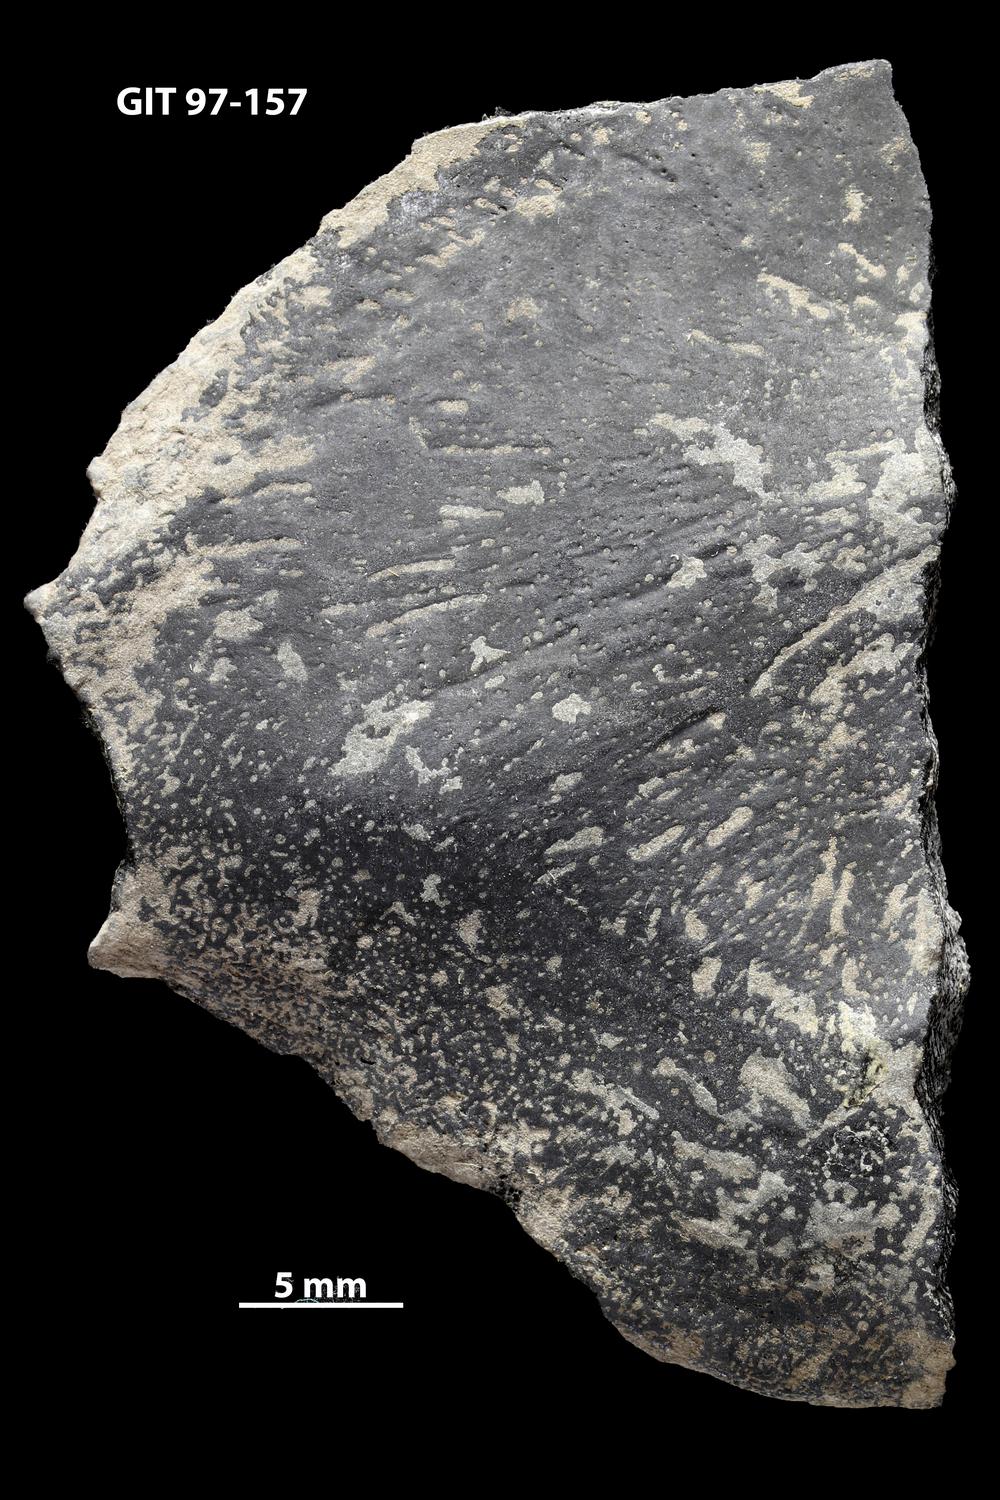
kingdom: Animalia
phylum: Chordata
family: Holonematidae
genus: Holonema
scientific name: Holonema
